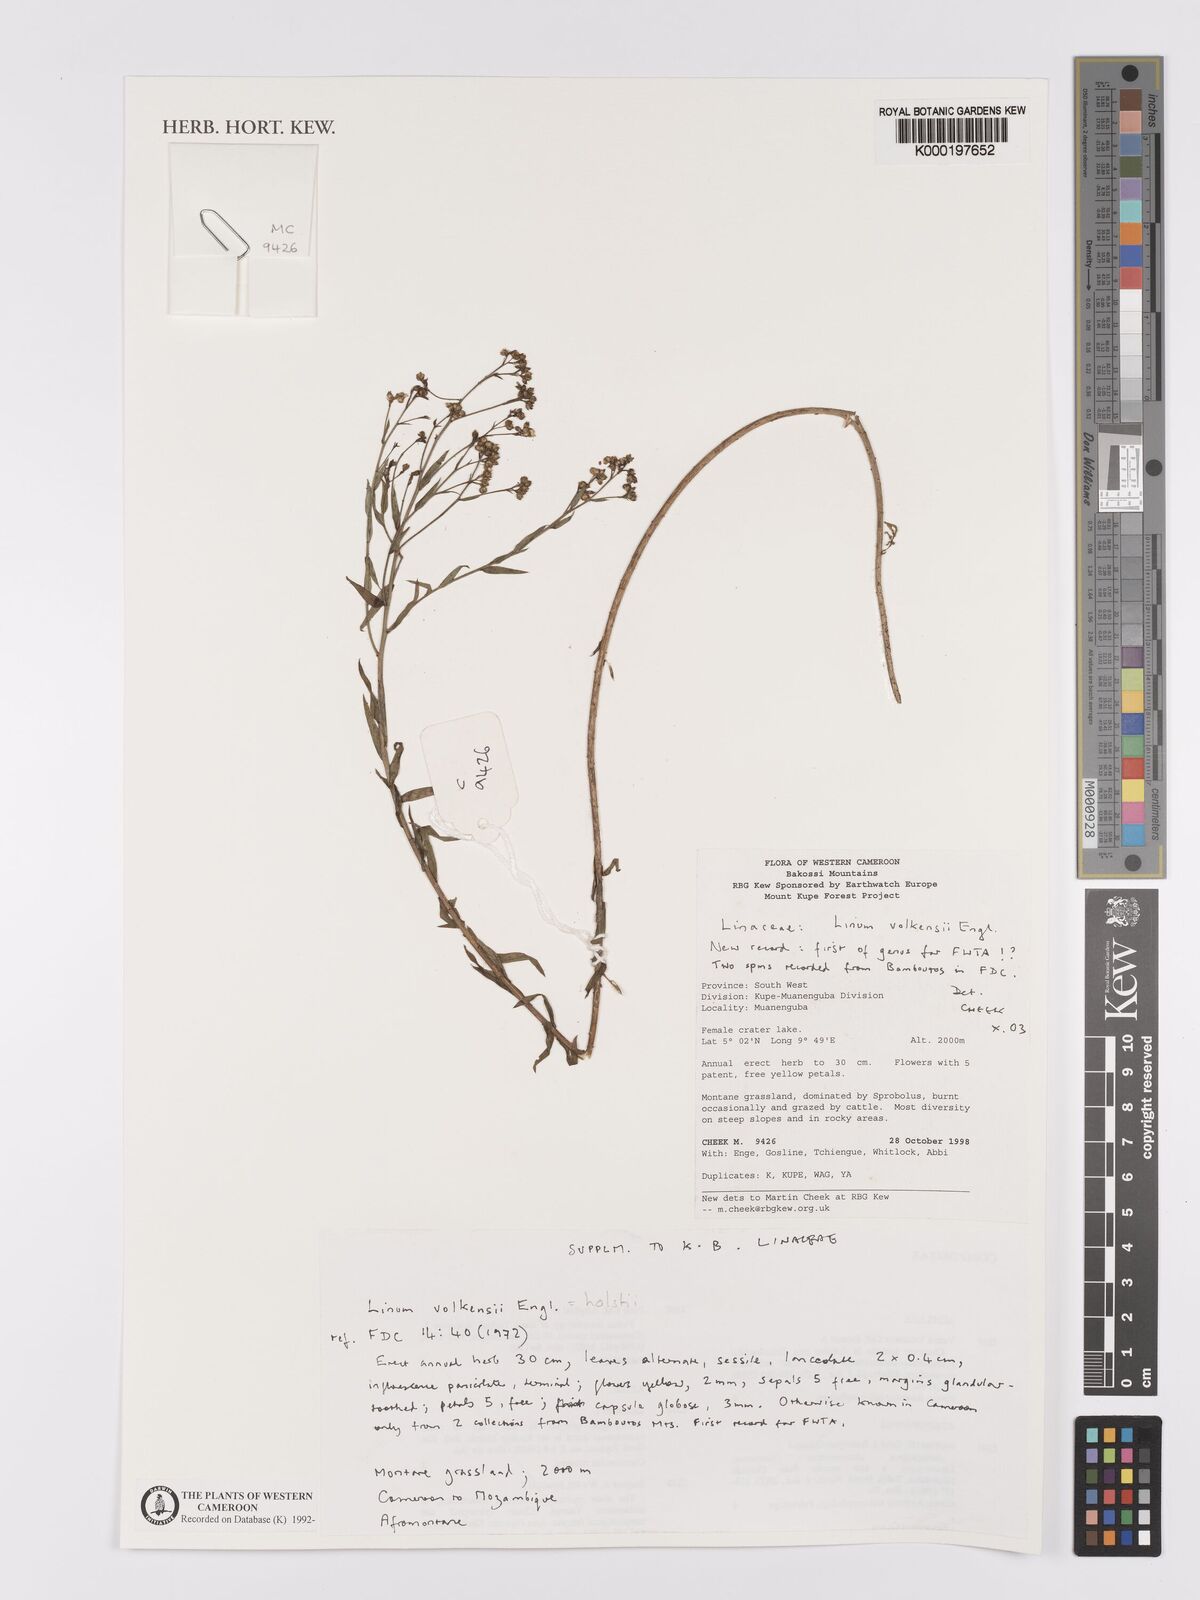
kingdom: Plantae
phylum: Tracheophyta
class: Magnoliopsida
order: Malpighiales
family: Linaceae
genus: Linum
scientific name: Linum volkensii
